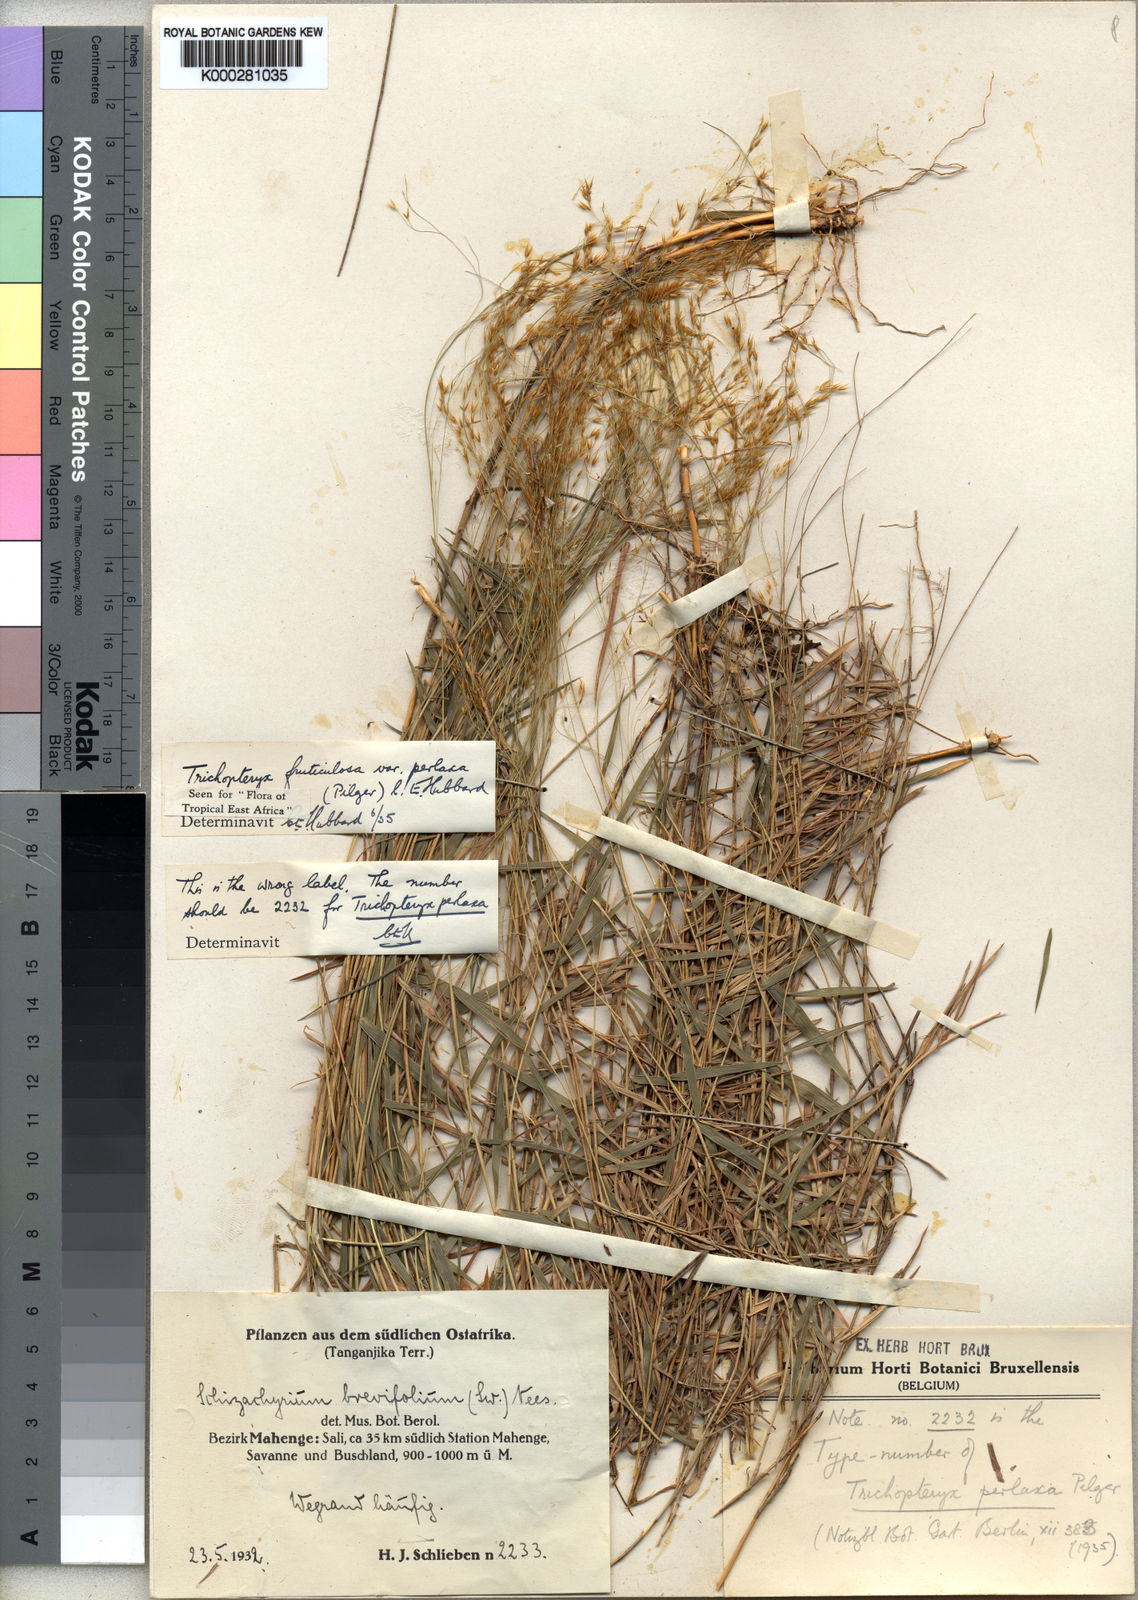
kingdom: Plantae
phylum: Tracheophyta
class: Liliopsida
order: Poales
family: Poaceae
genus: Trichopteryx
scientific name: Trichopteryx fruticulosa
